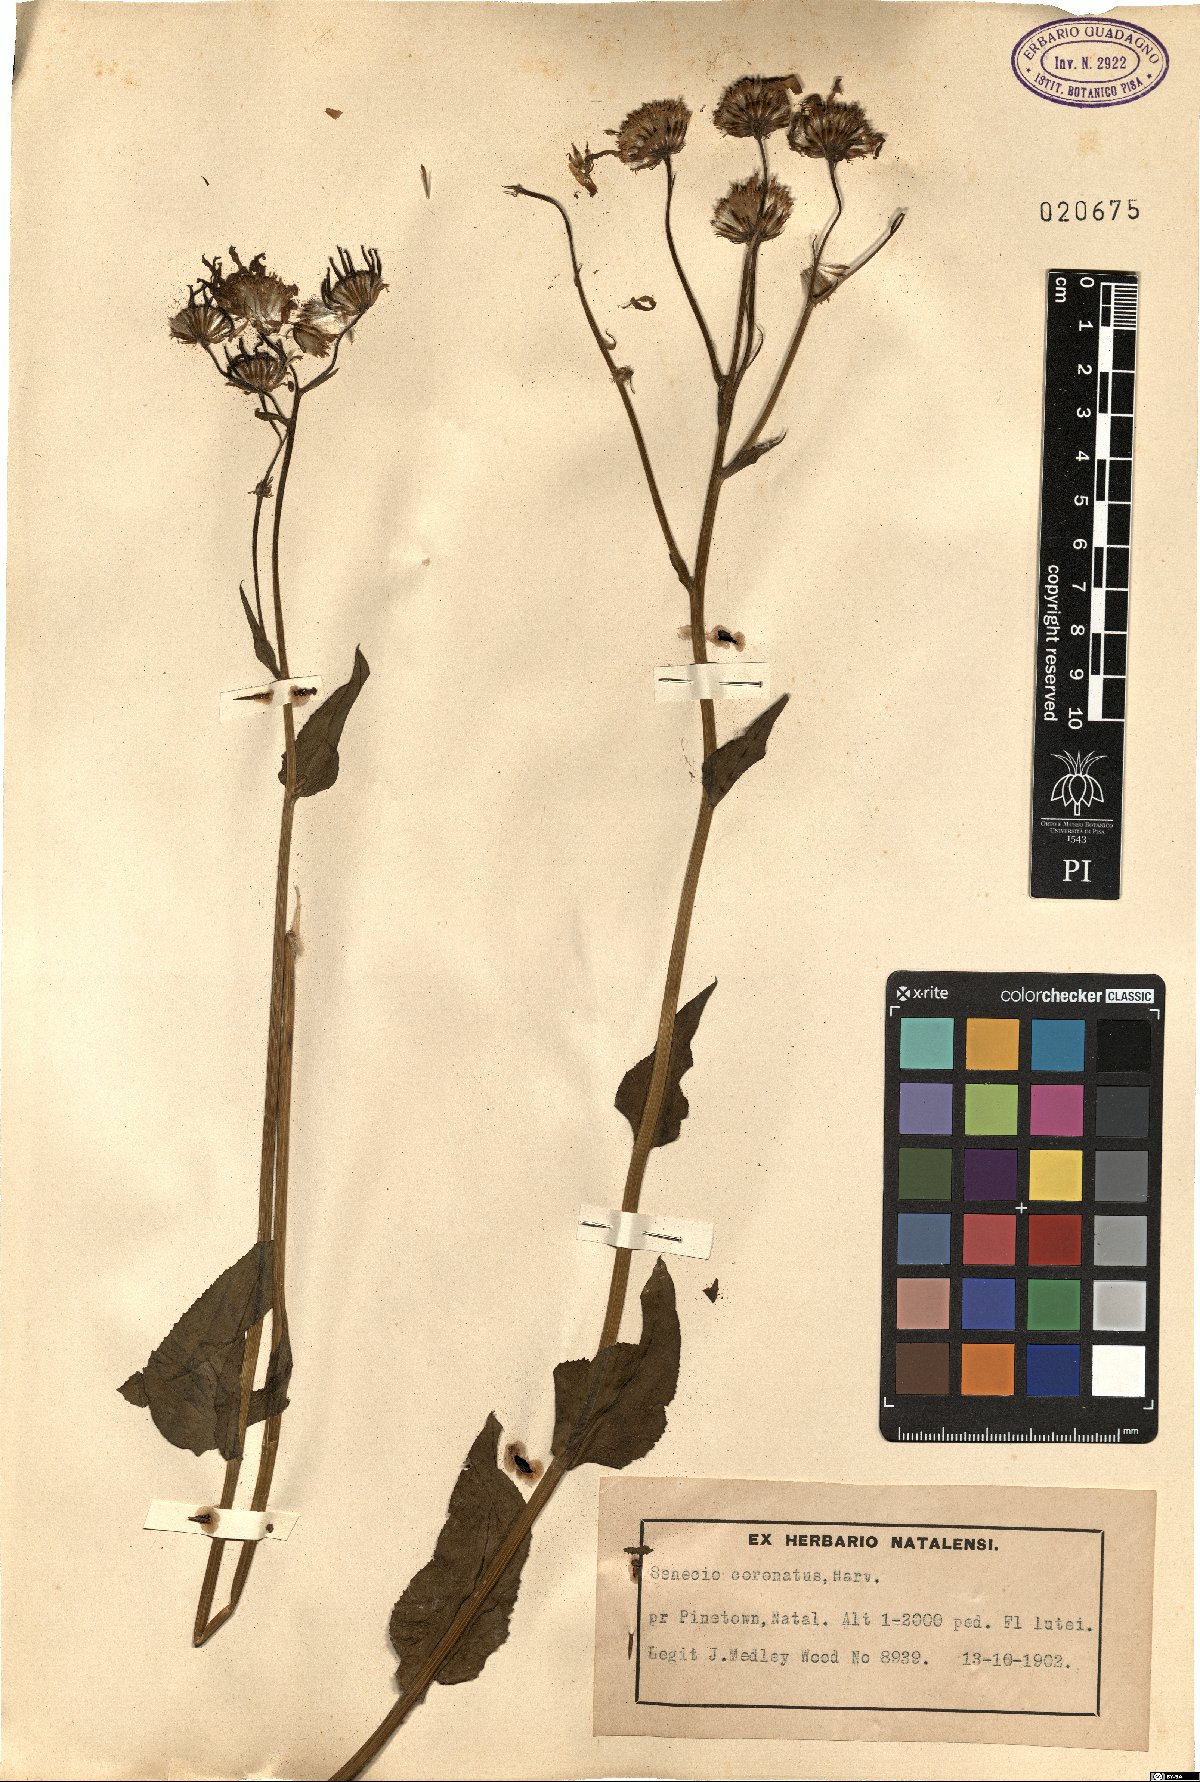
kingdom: Plantae
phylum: Tracheophyta
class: Magnoliopsida
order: Asterales
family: Asteraceae
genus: Senecio
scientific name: Senecio coronatus
